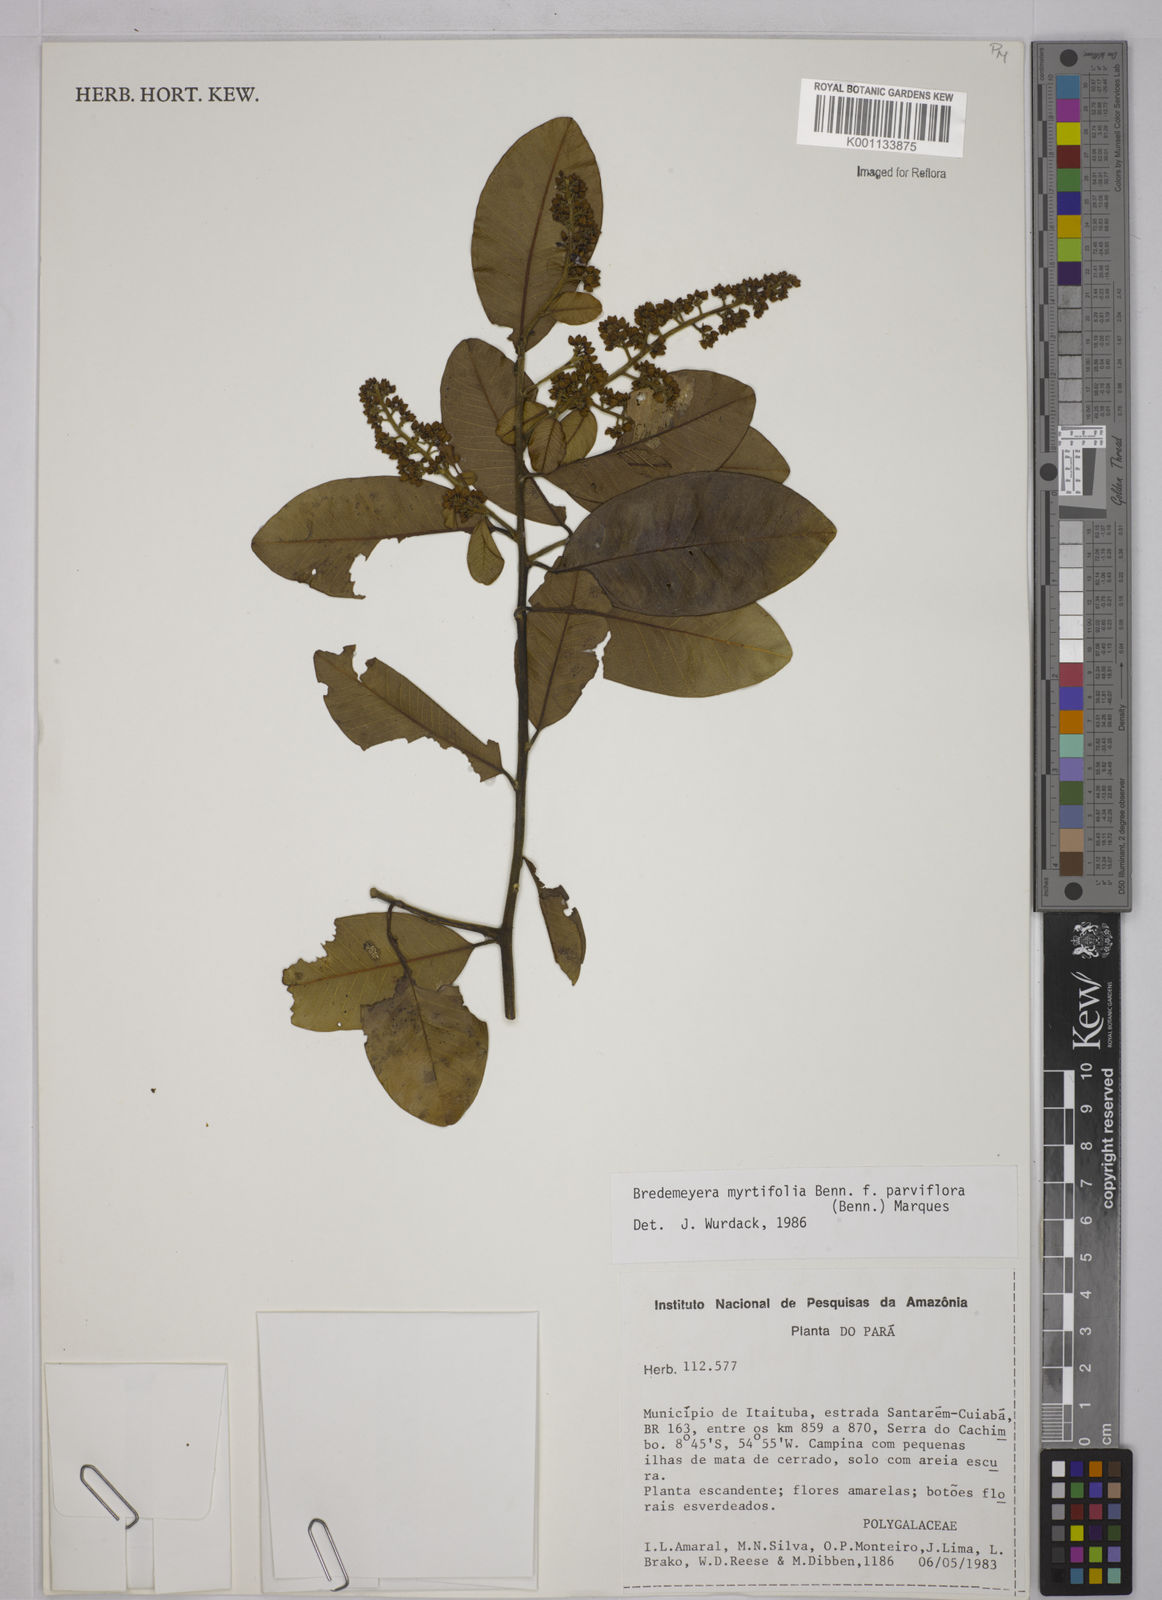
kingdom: Plantae
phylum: Tracheophyta
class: Magnoliopsida
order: Fabales
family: Polygalaceae
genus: Bredemeyera
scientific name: Bredemeyera myrtifolia
